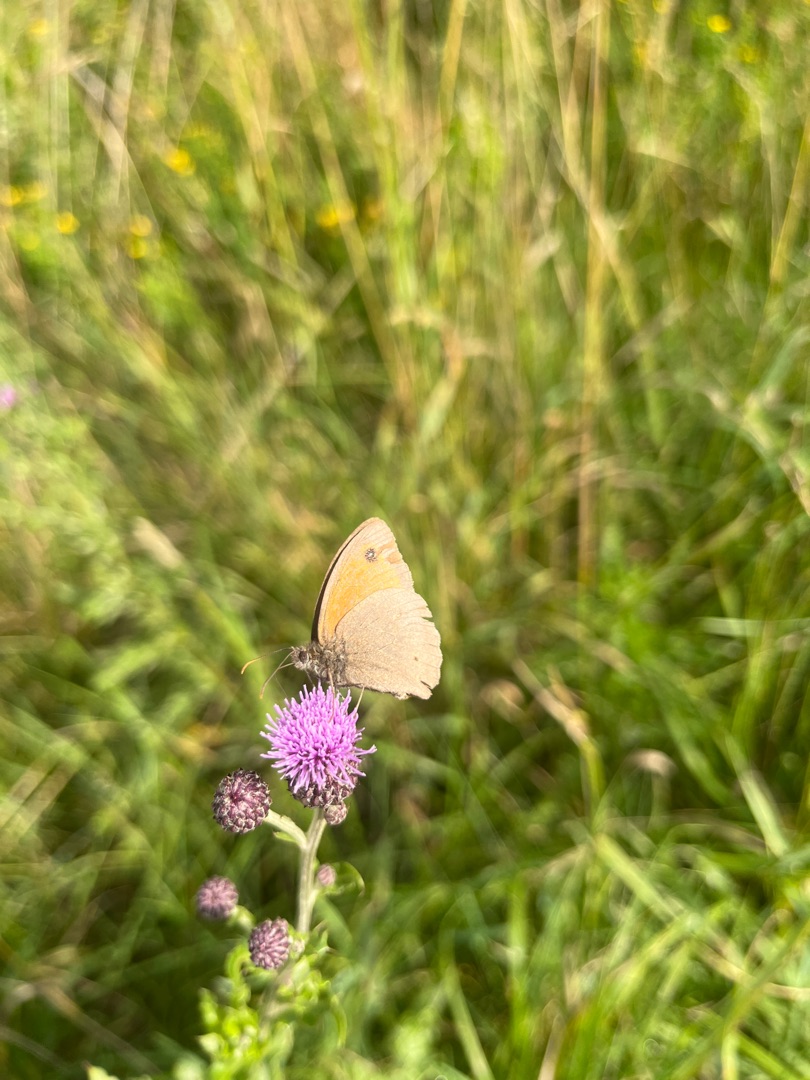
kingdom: Animalia
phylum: Arthropoda
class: Insecta
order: Lepidoptera
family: Nymphalidae
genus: Maniola
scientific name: Maniola jurtina
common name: Græsrandøje
